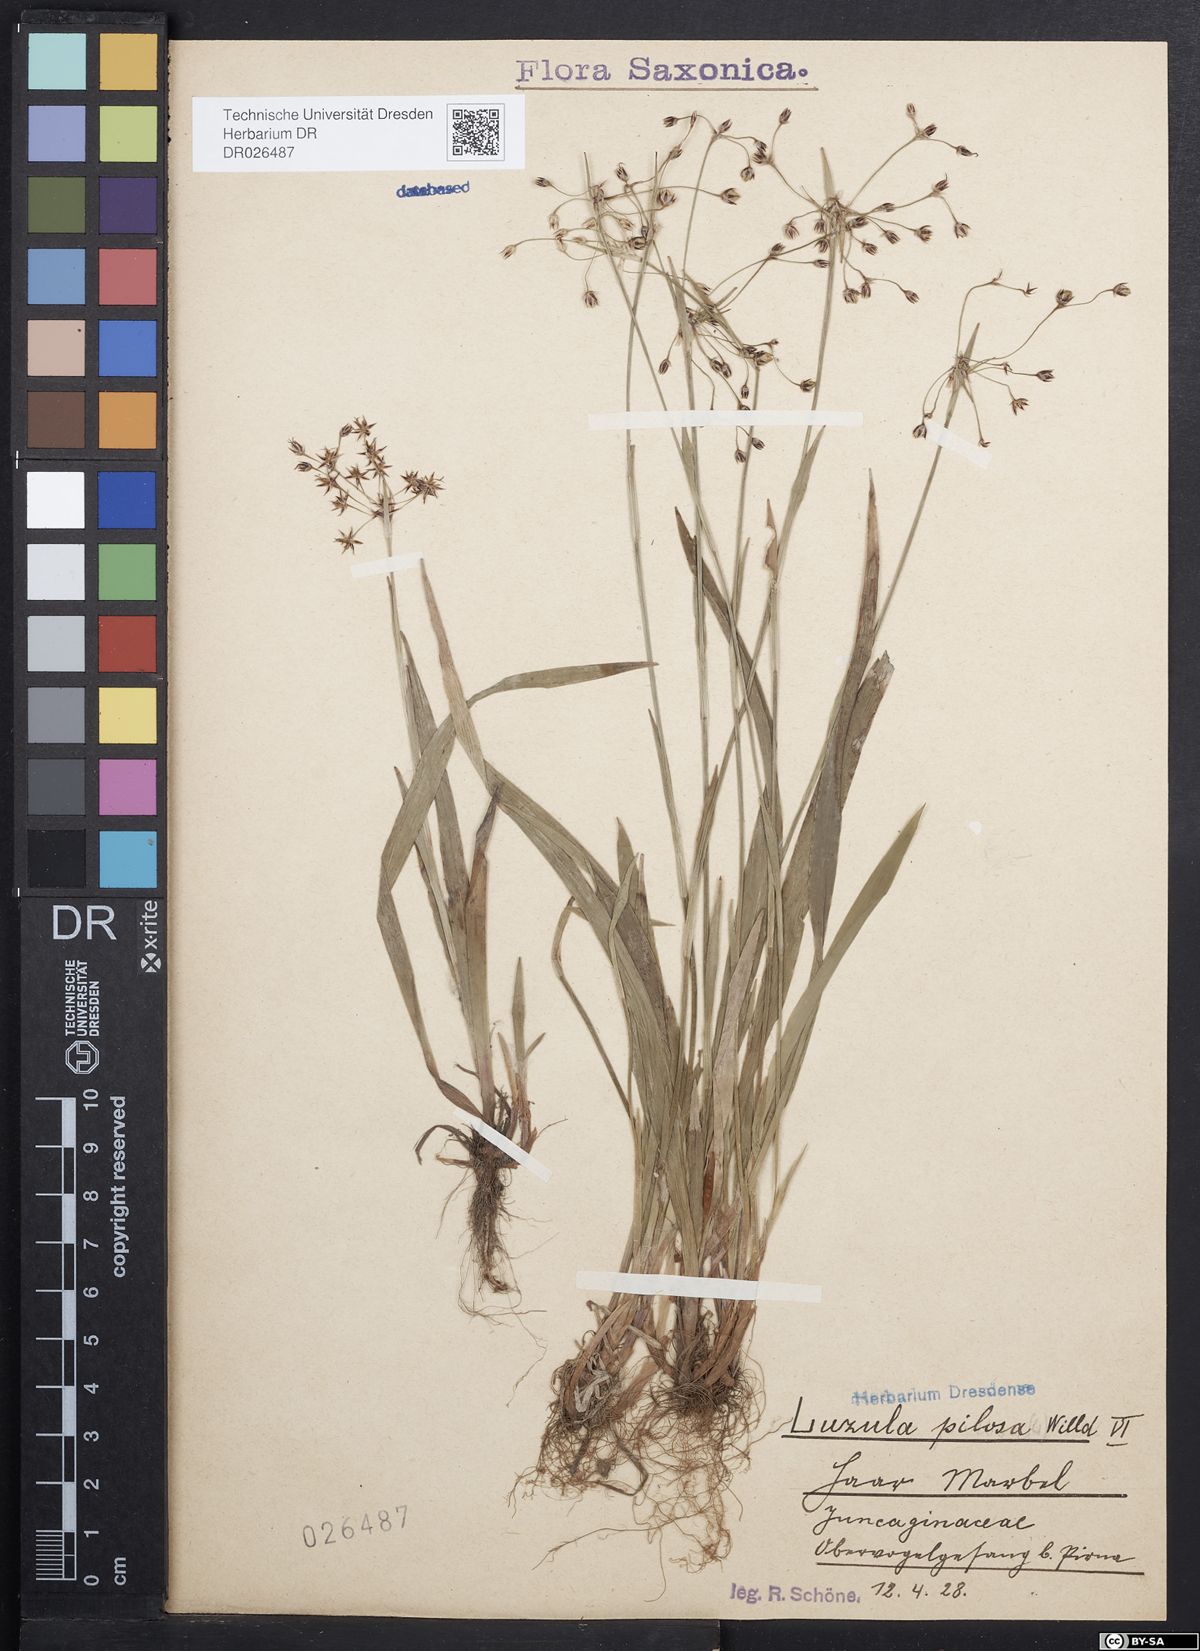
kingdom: Plantae
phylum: Tracheophyta
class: Liliopsida
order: Poales
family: Juncaceae
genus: Luzula
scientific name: Luzula pilosa
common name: Hairy wood-rush
